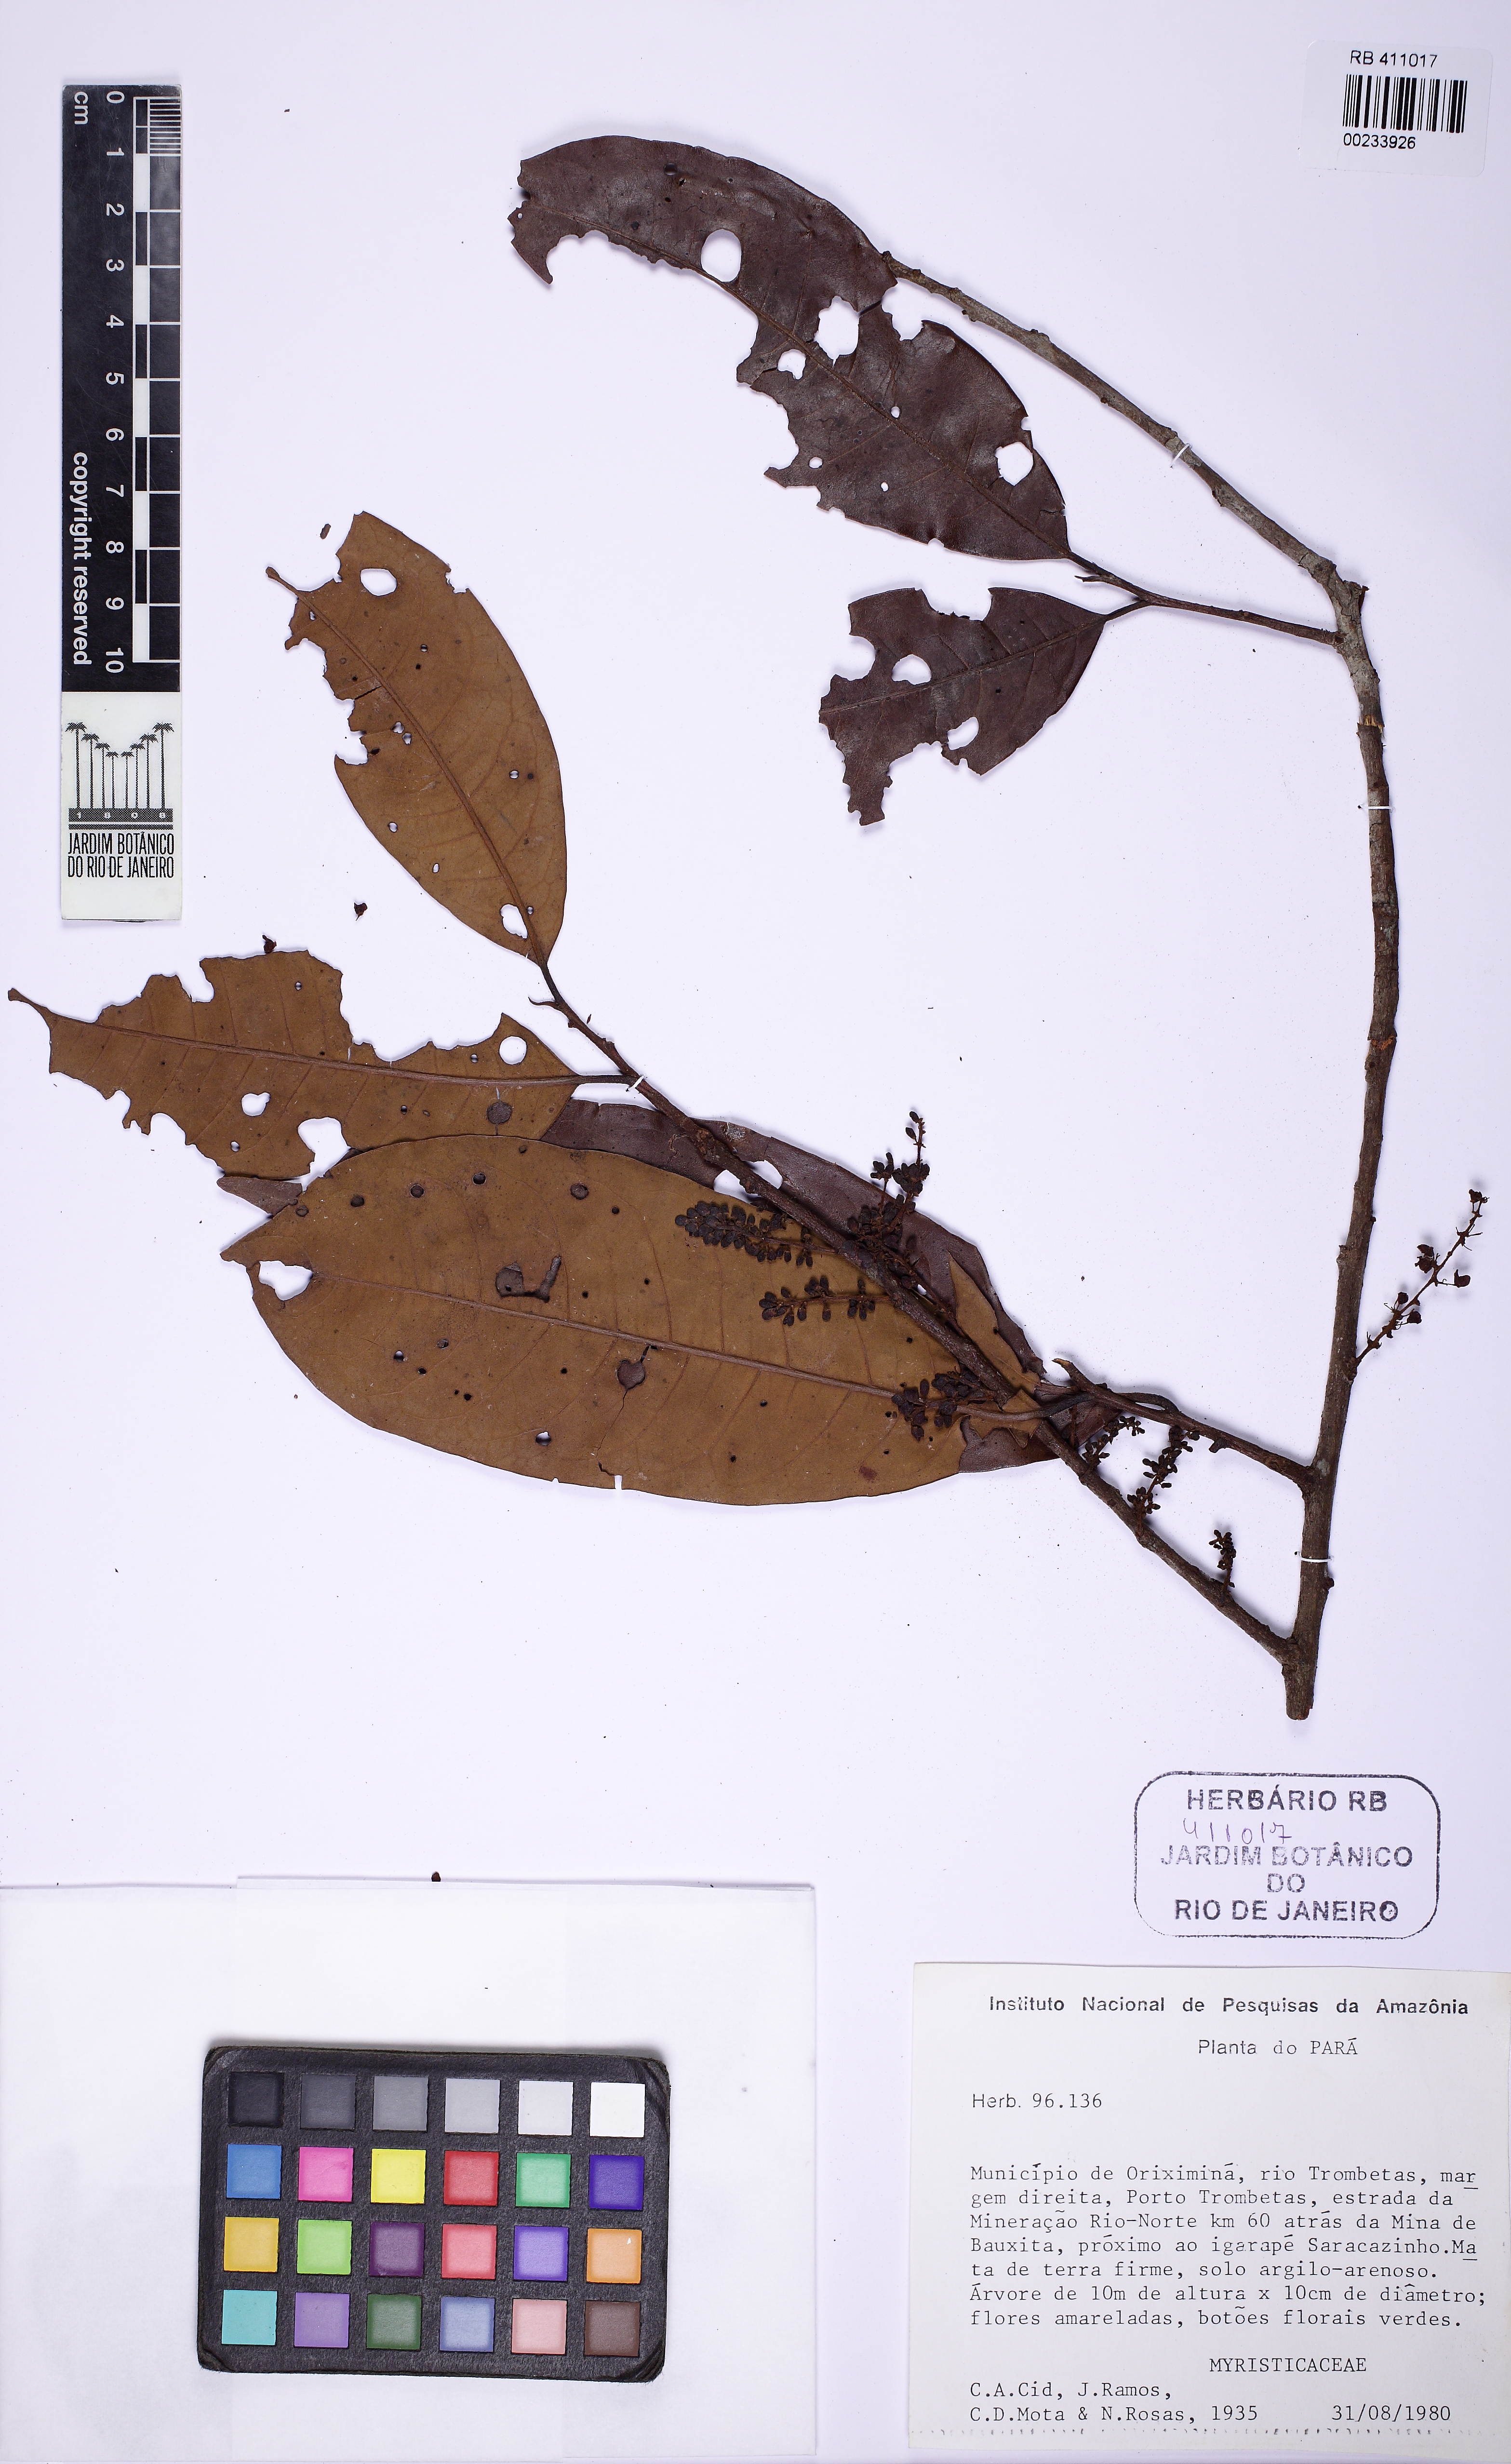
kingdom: Plantae
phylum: Tracheophyta
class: Magnoliopsida
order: Magnoliales
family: Myristicaceae
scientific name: Myristicaceae
